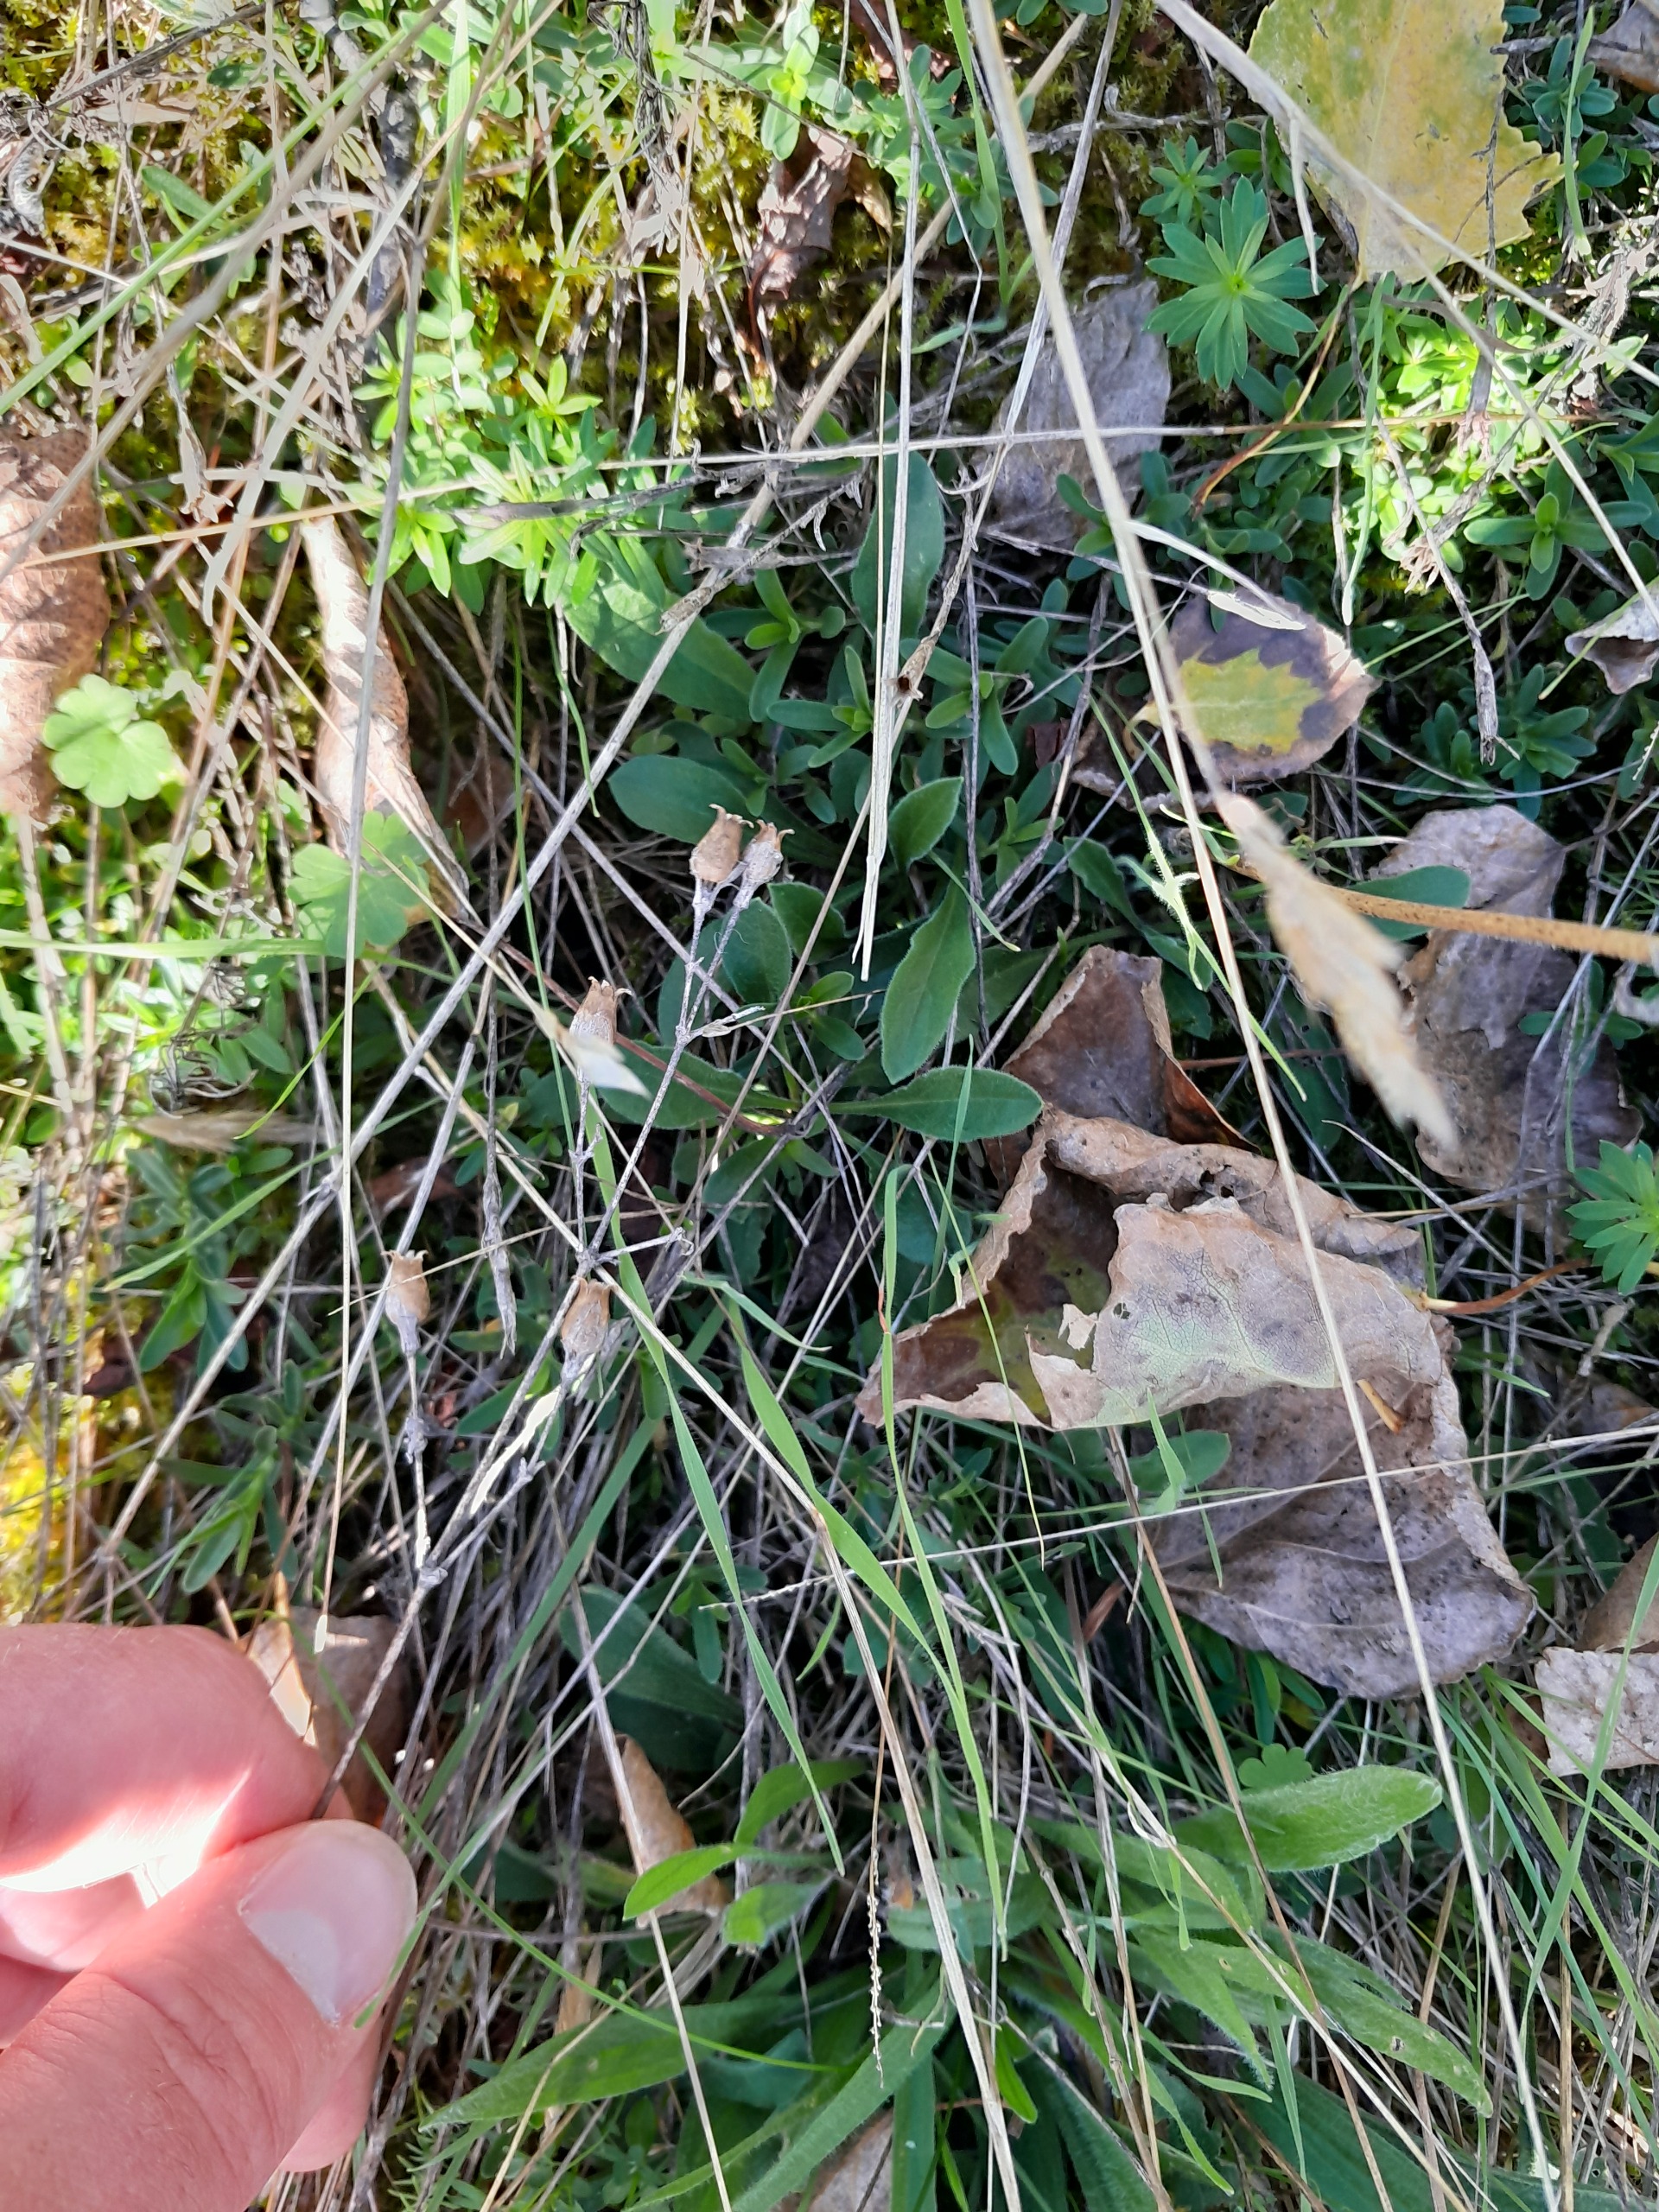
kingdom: Plantae
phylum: Tracheophyta
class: Magnoliopsida
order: Caryophyllales
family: Caryophyllaceae
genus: Silene
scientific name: Silene nutans
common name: Nikkende limurt
